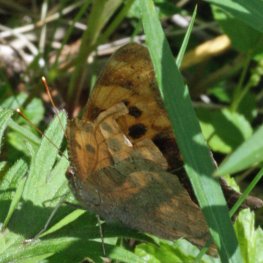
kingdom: Animalia
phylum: Arthropoda
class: Insecta
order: Lepidoptera
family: Nymphalidae
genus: Polygonia
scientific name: Polygonia interrogationis
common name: Question Mark
